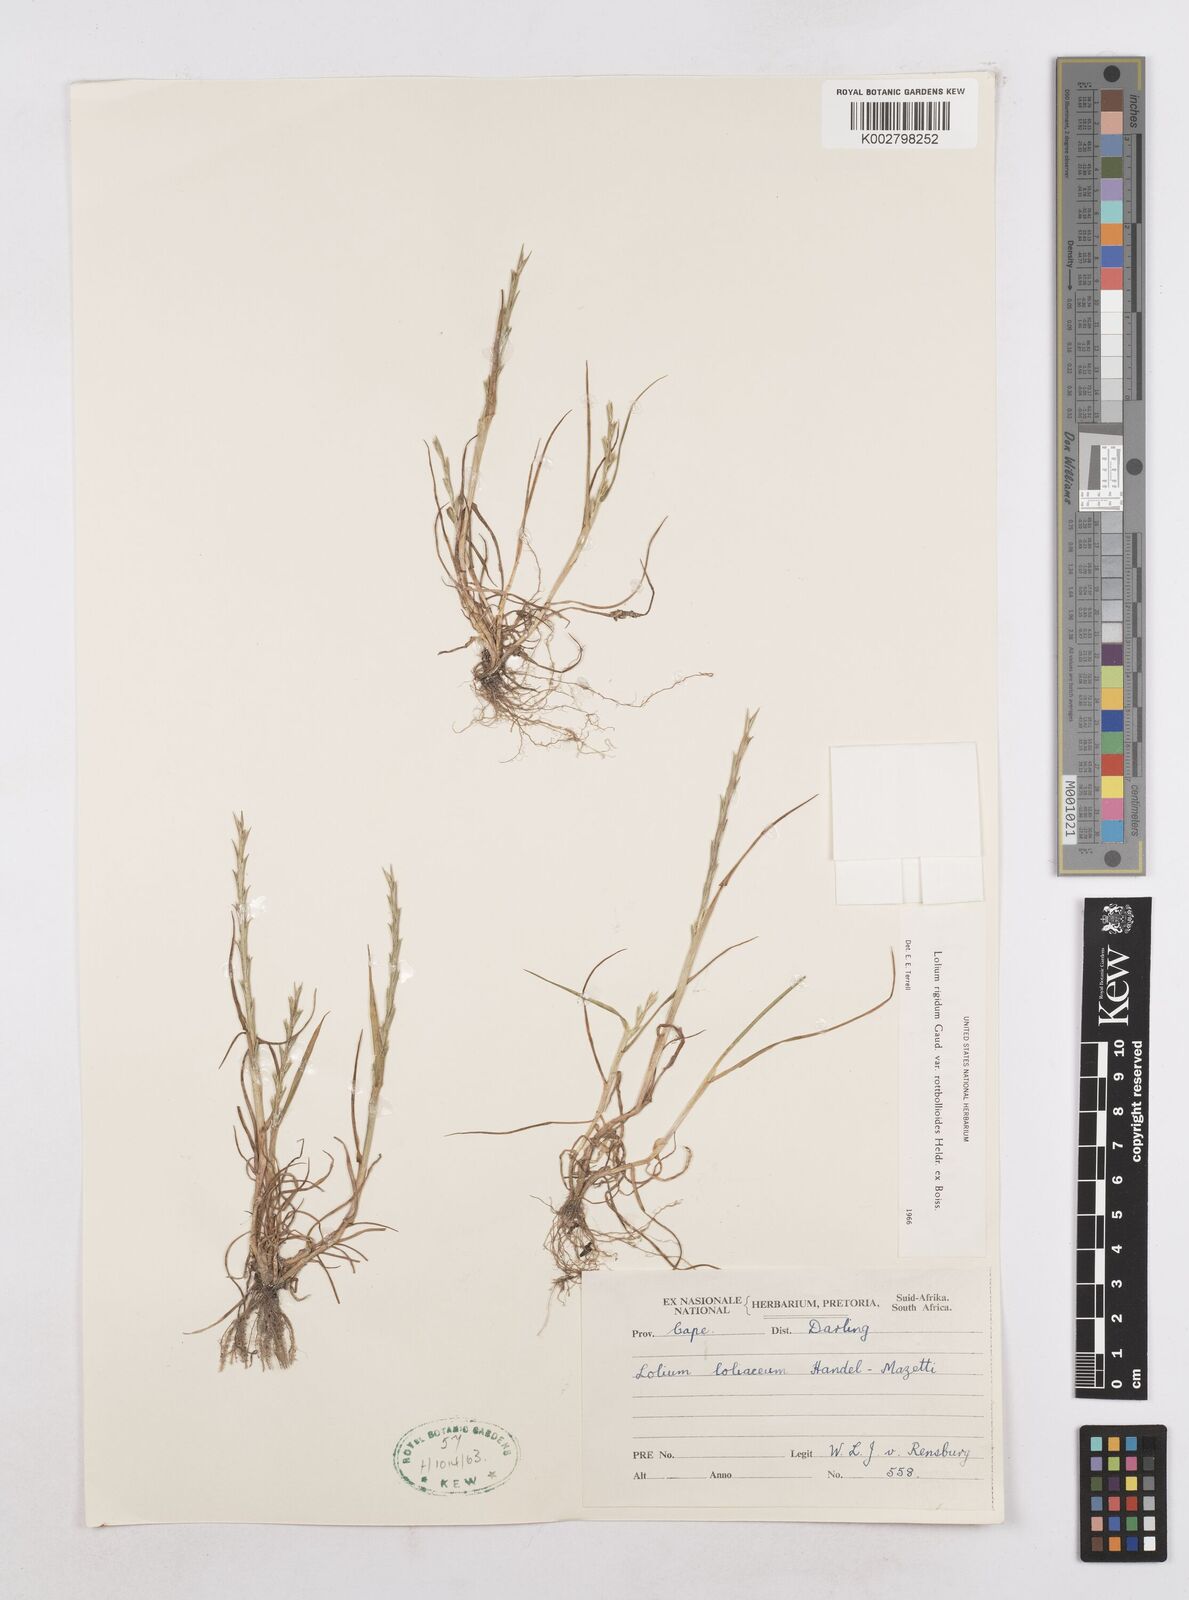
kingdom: Plantae
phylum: Tracheophyta
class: Liliopsida
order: Poales
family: Poaceae
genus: Lolium
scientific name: Lolium rigidum
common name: Wimmera ryegrass
